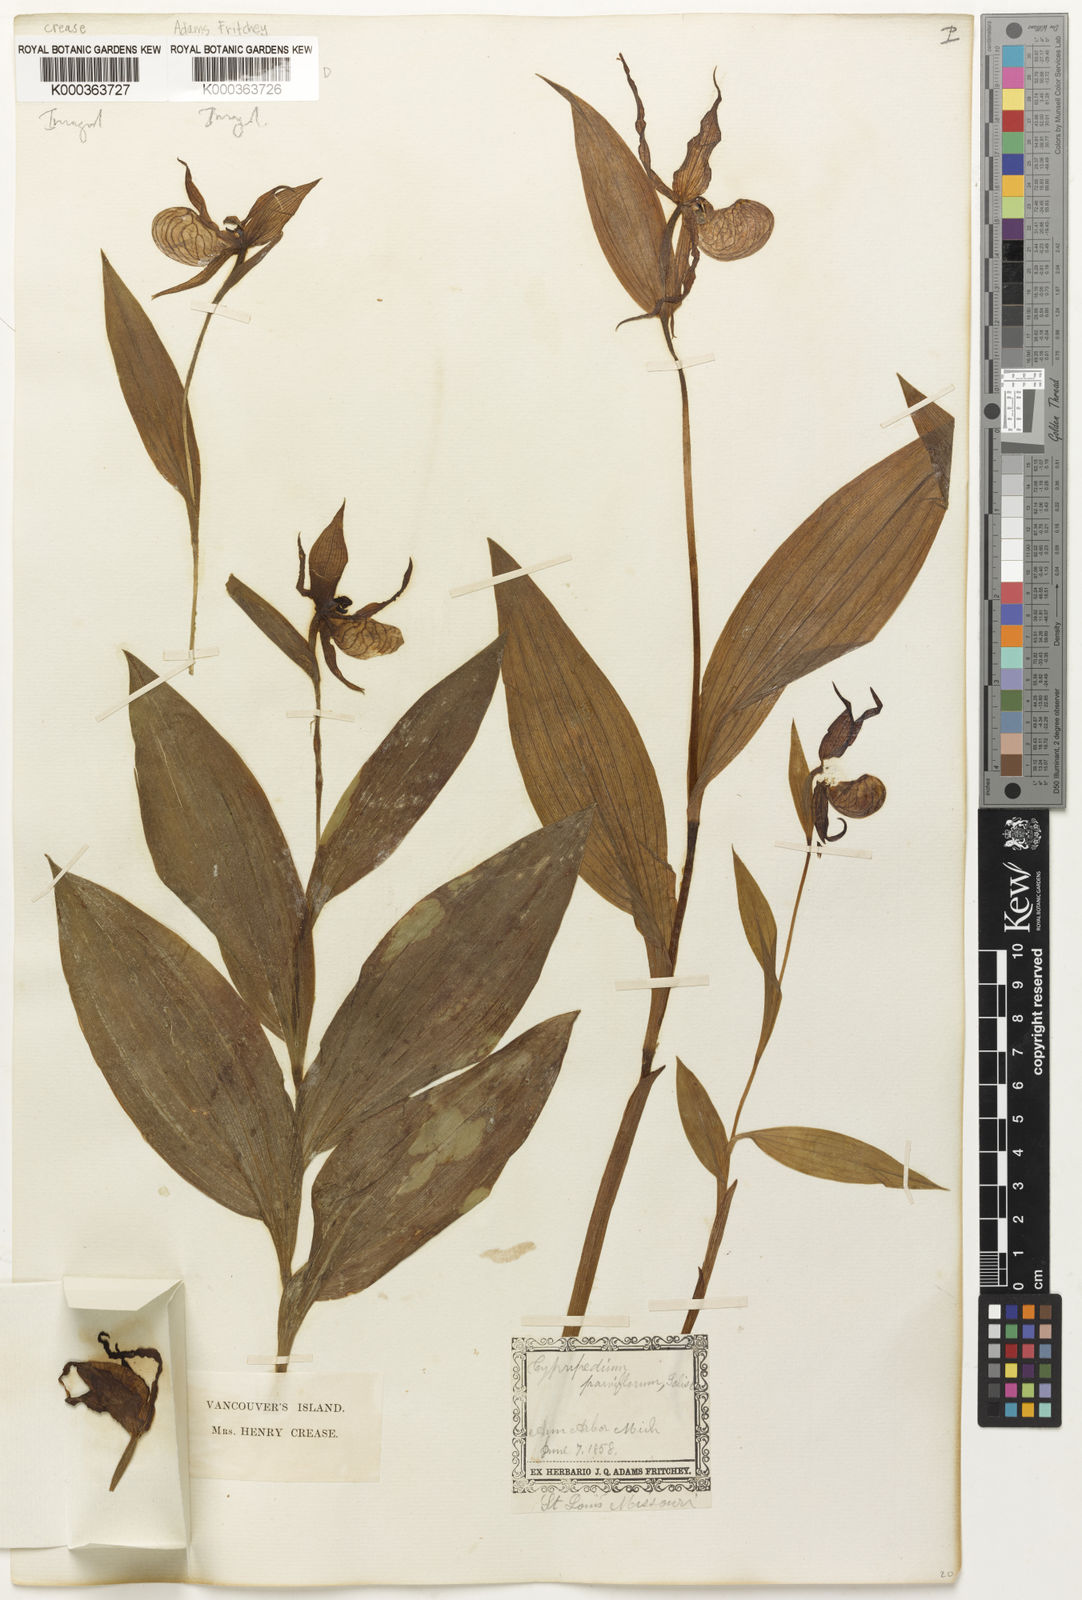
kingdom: Plantae
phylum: Tracheophyta
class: Liliopsida
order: Asparagales
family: Orchidaceae
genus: Cypripedium
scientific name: Cypripedium parviflorum
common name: American yellow lady's-slipper
